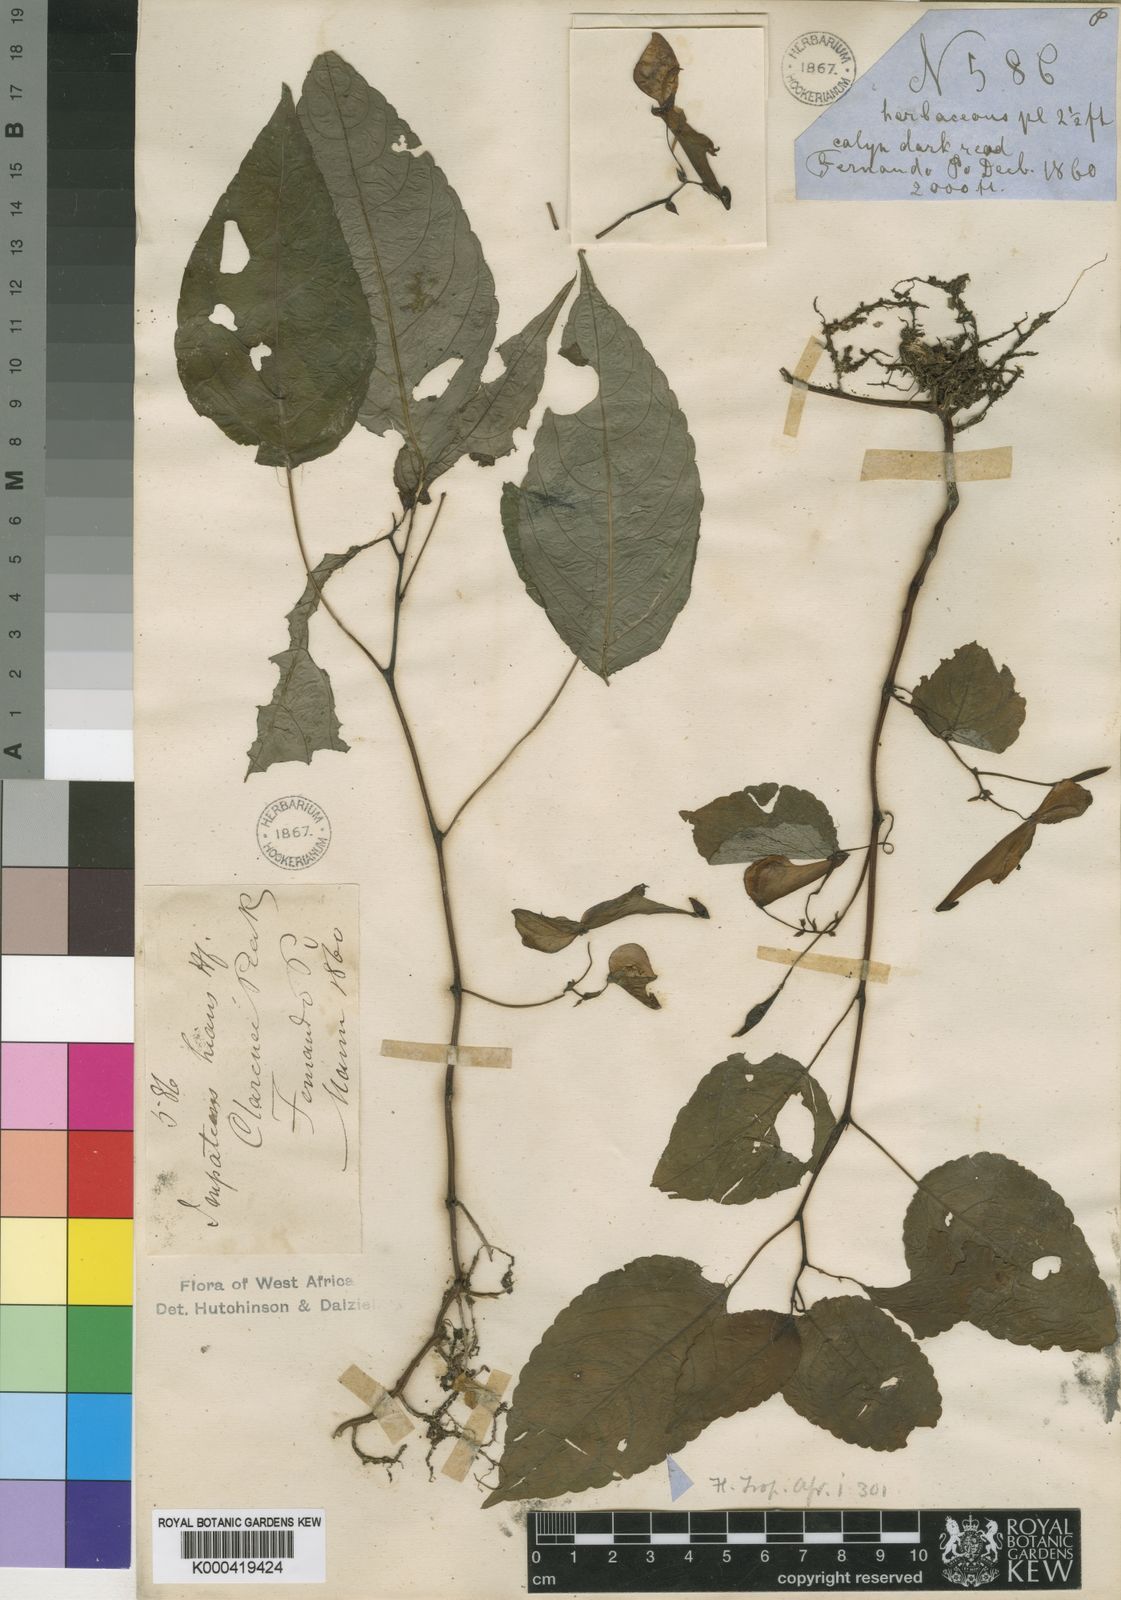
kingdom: Plantae
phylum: Tracheophyta
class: Magnoliopsida
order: Ericales
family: Balsaminaceae
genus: Impatiens
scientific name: Impatiens hians
